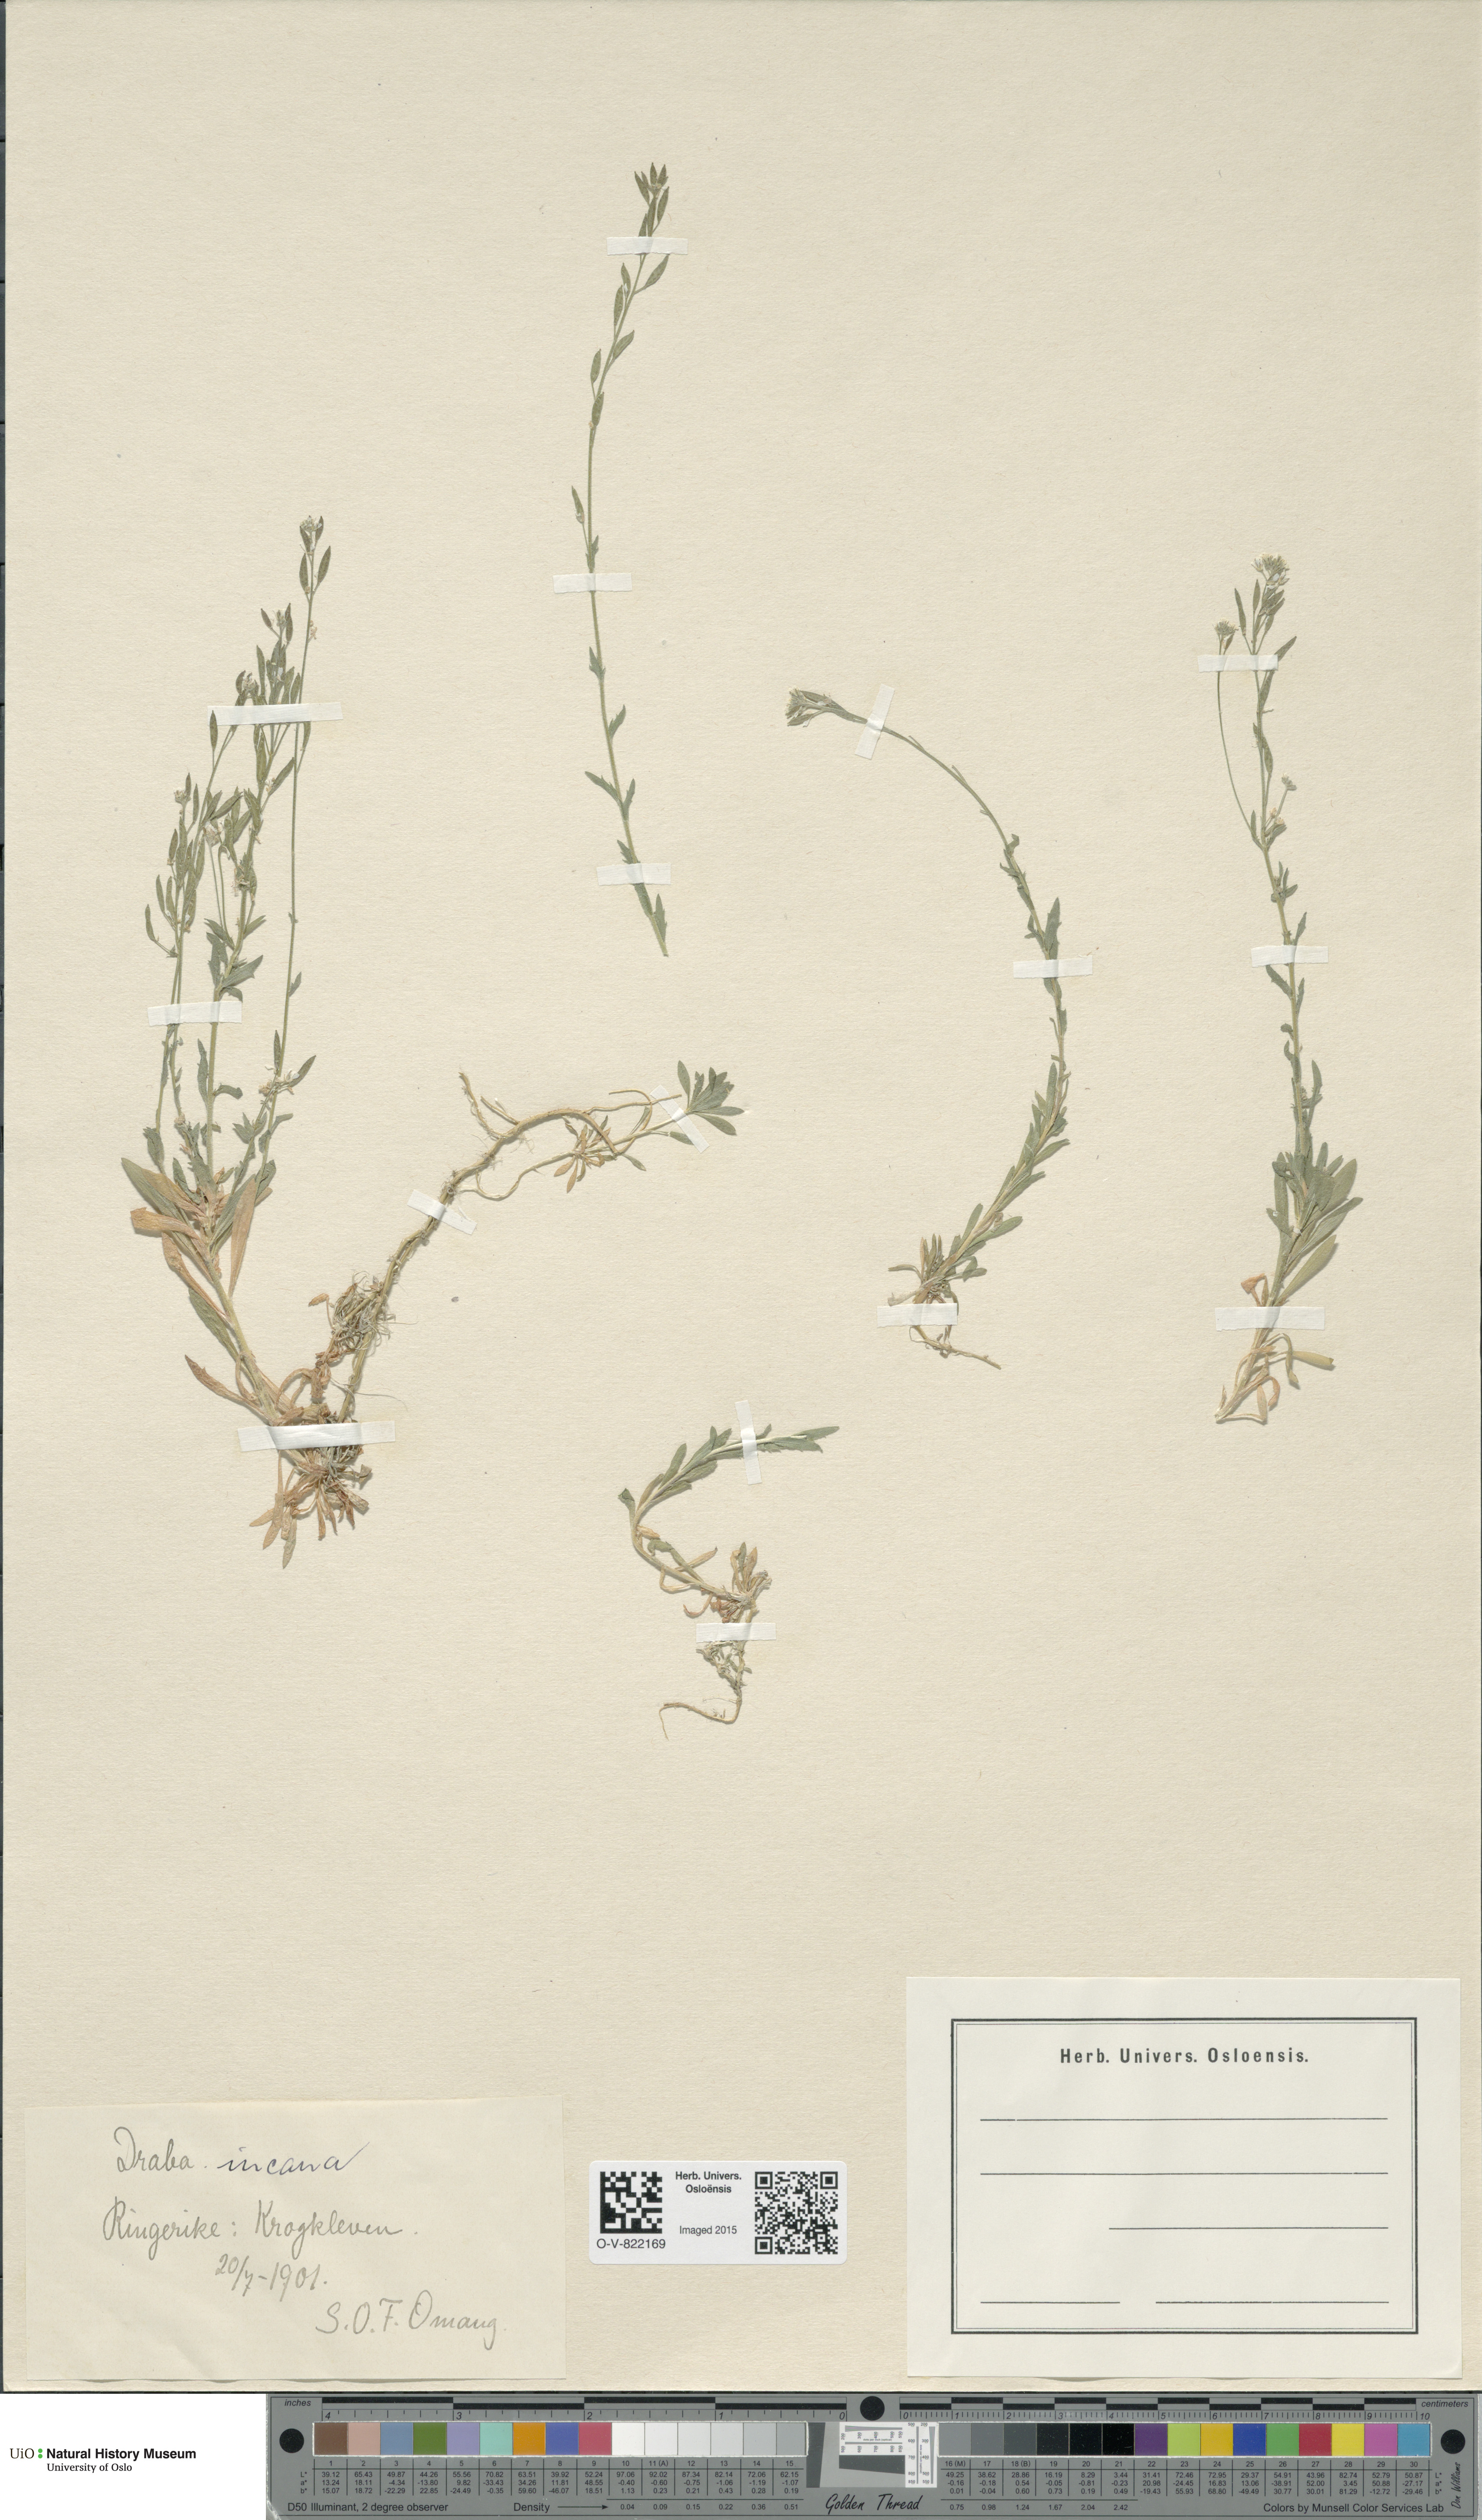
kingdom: Plantae
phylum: Tracheophyta
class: Magnoliopsida
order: Brassicales
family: Brassicaceae
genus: Draba
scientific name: Draba incana
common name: Hoary whitlow-grass
